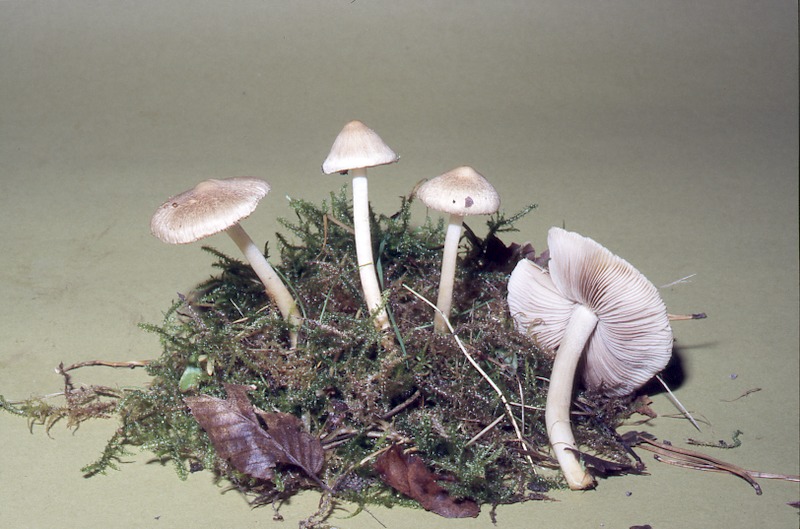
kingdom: Fungi
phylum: Basidiomycota
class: Agaricomycetes
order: Agaricales
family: Inocybaceae
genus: Inocybe
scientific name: Inocybe sindonia
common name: Beige fibrecap
